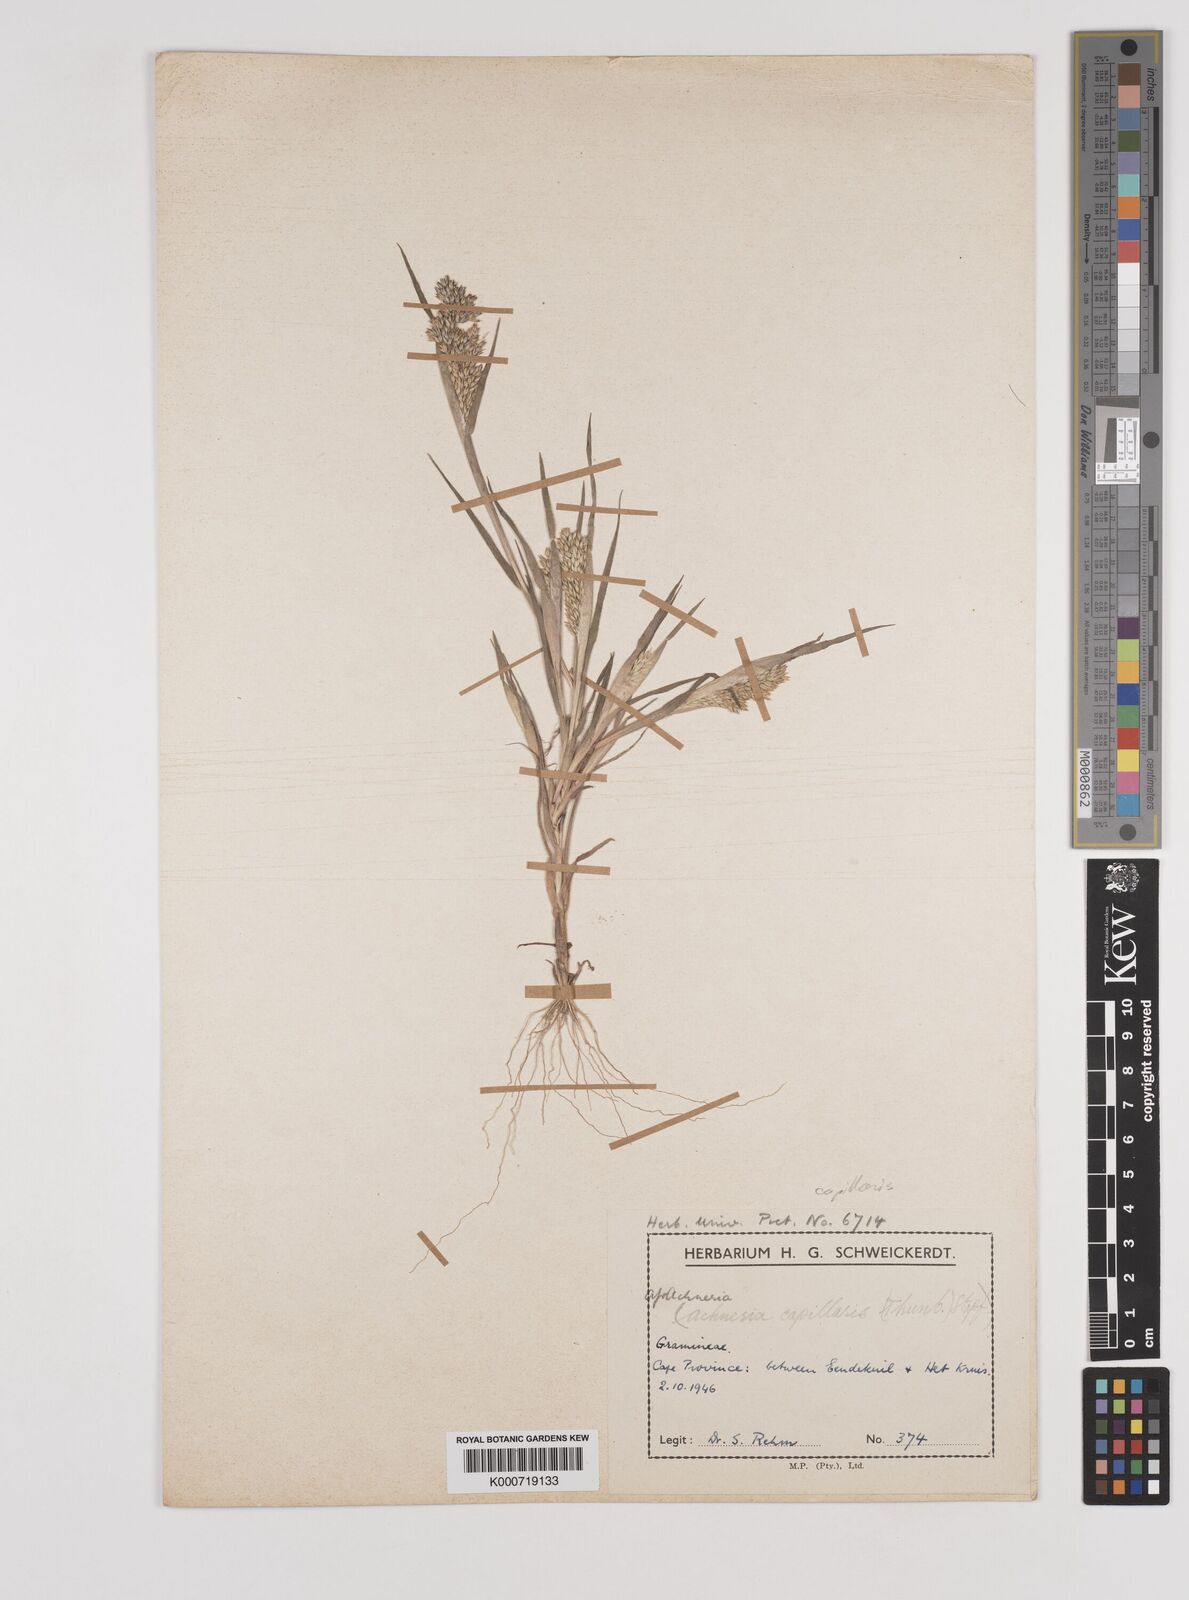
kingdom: Plantae
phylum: Tracheophyta
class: Liliopsida
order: Poales
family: Poaceae
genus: Pentameris
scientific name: Pentameris capillaris
